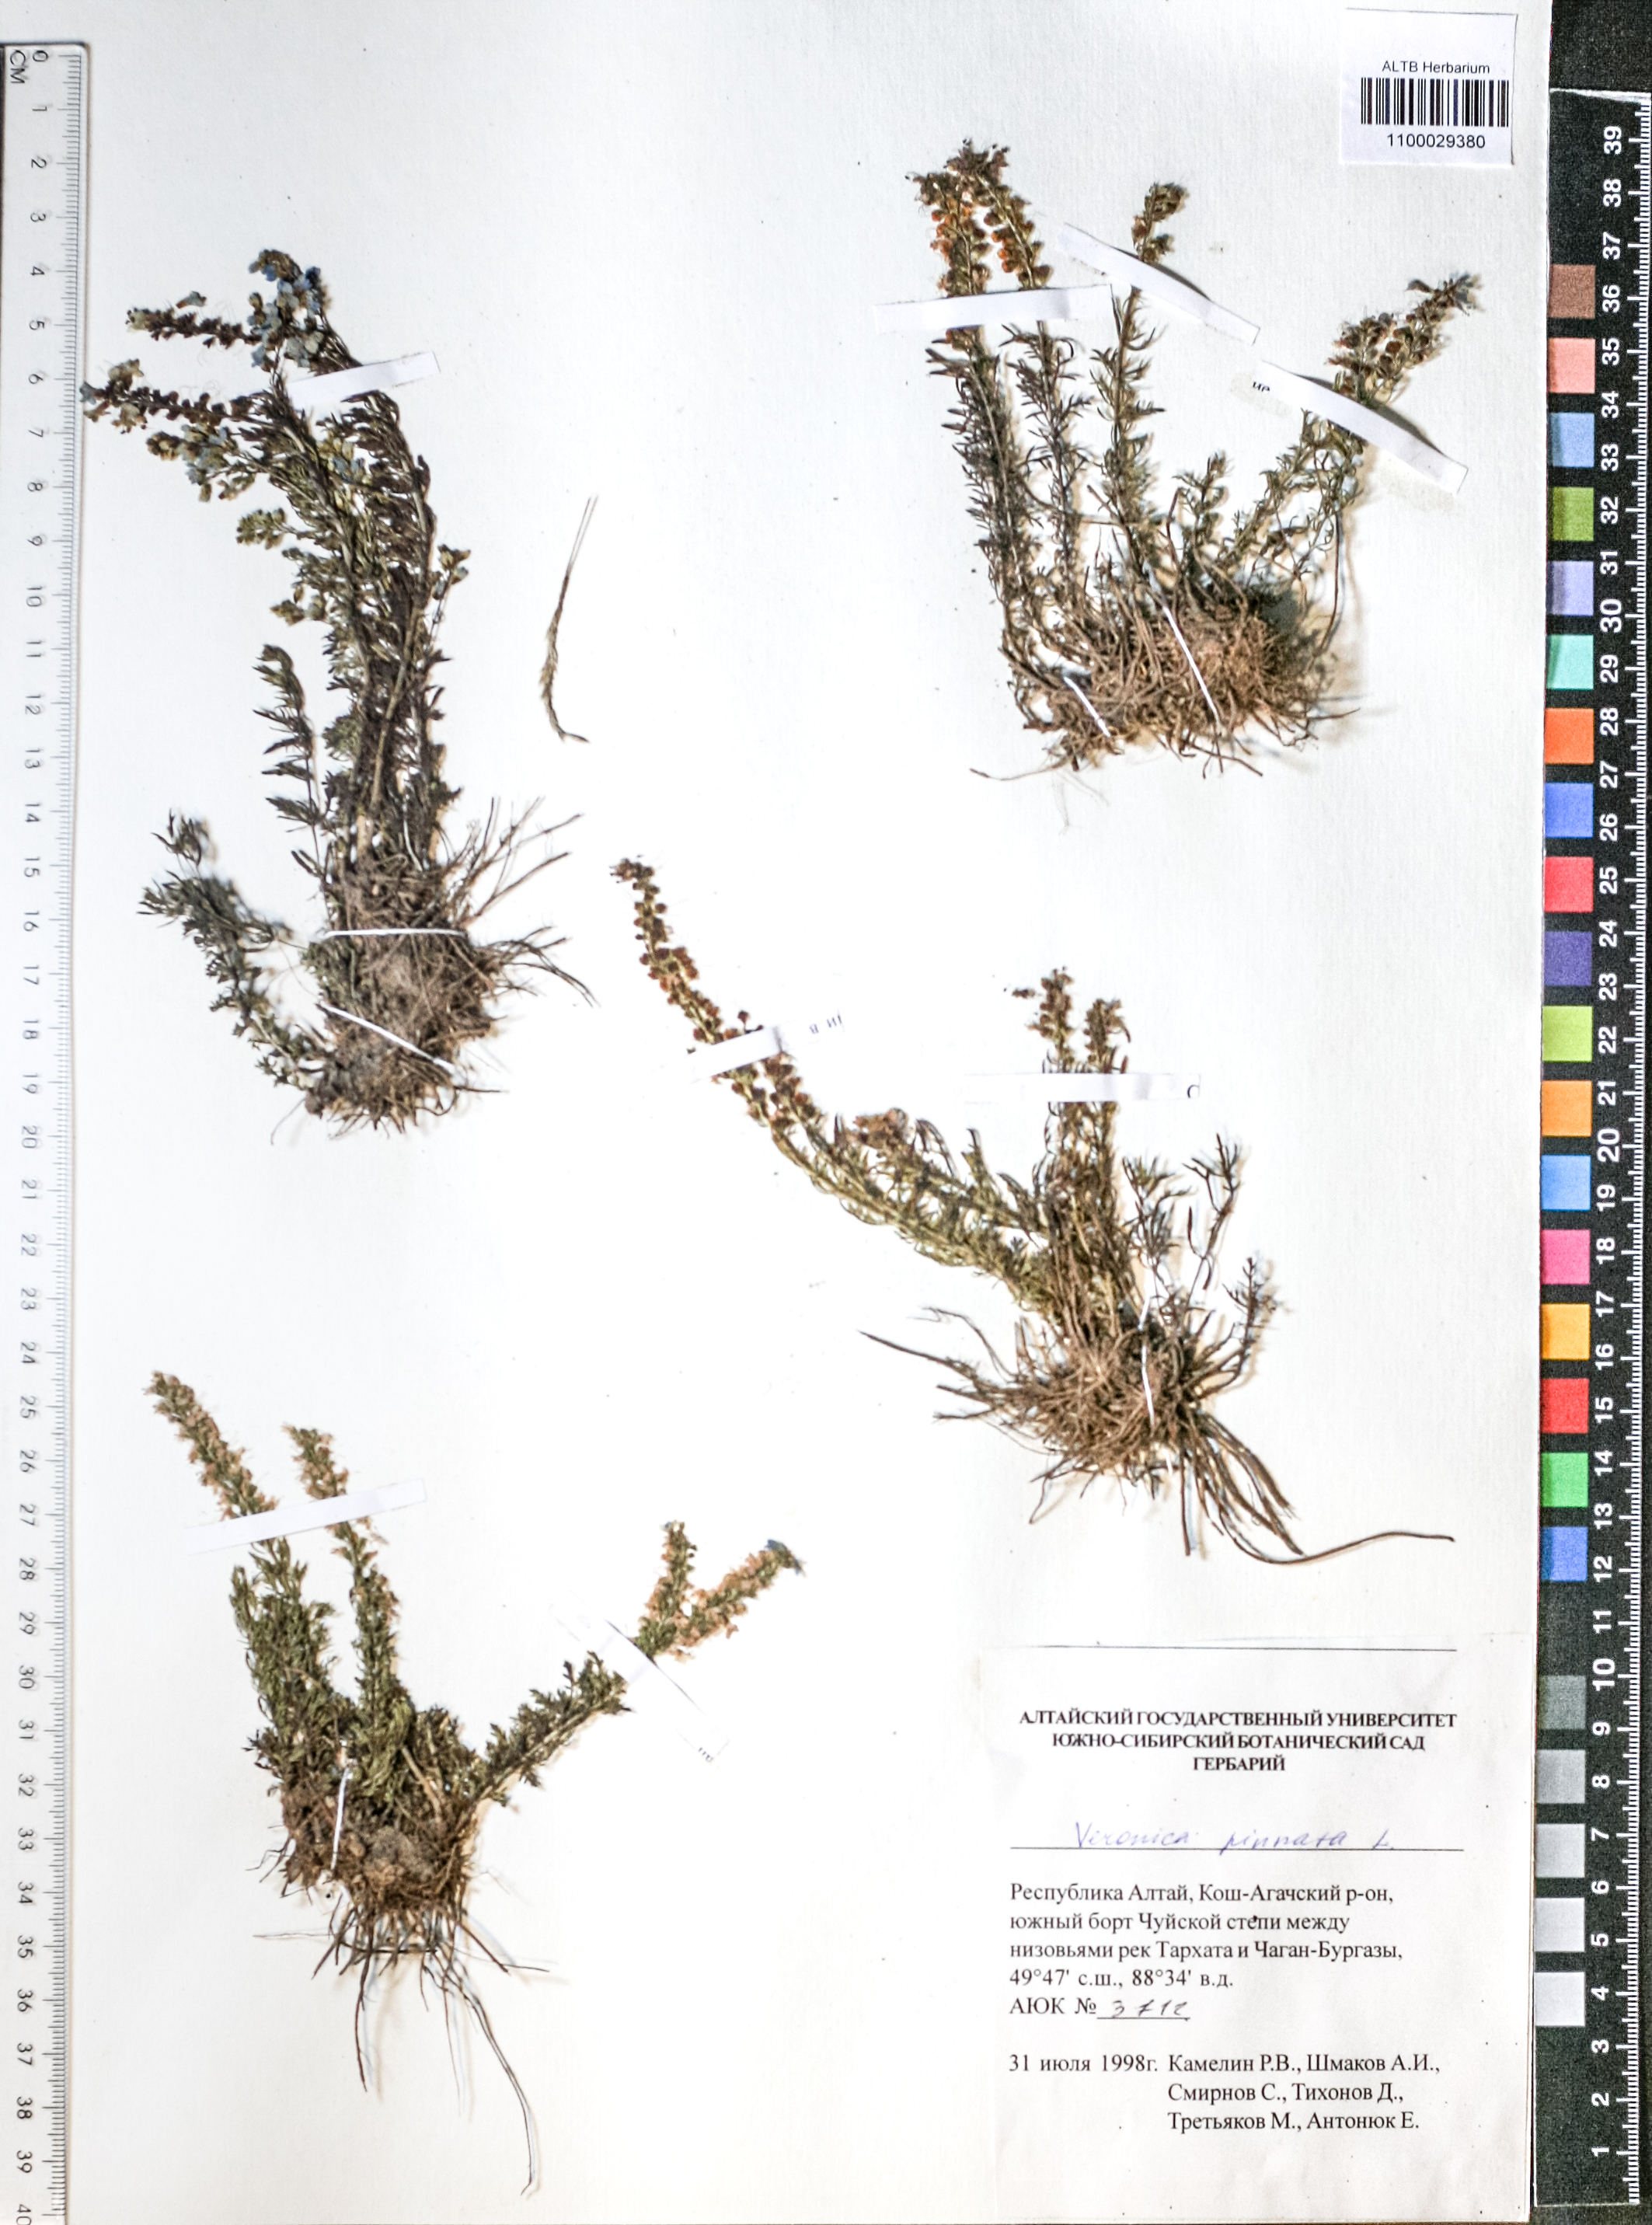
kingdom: Plantae
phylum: Tracheophyta
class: Magnoliopsida
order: Lamiales
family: Plantaginaceae
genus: Veronica
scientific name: Veronica pinnata
